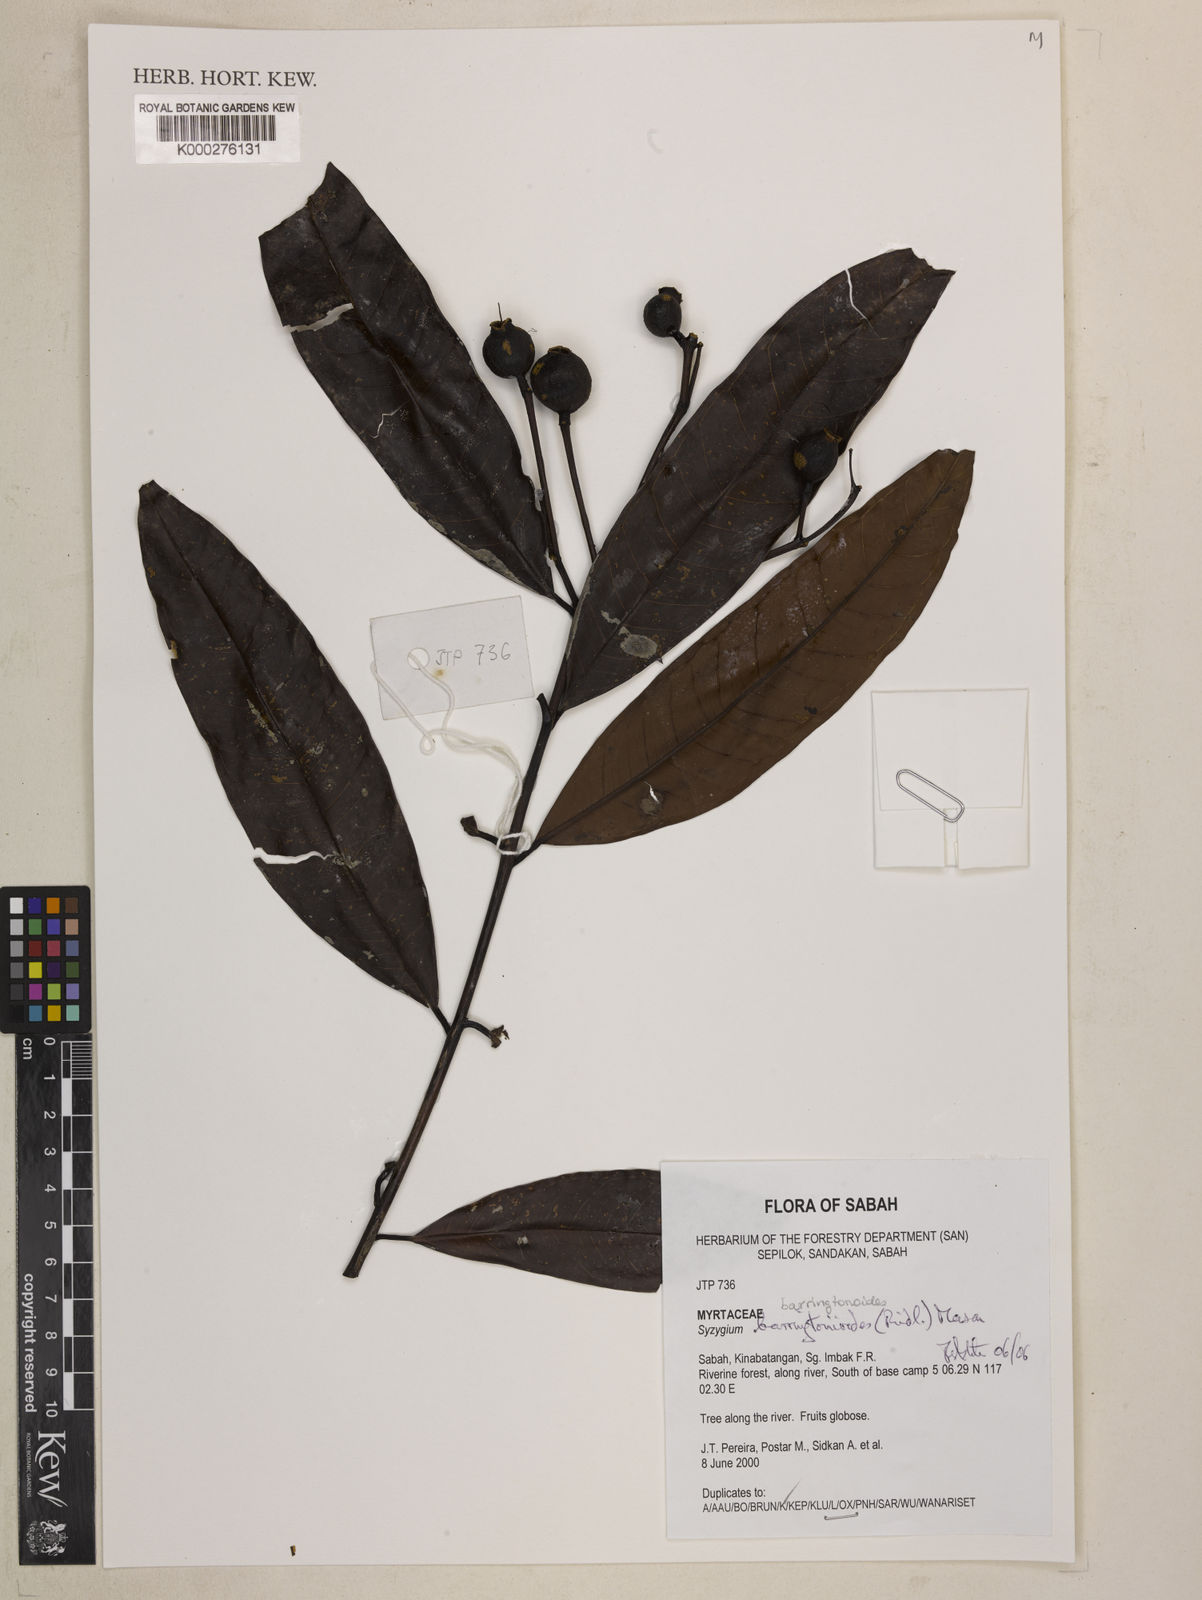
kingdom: Plantae
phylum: Tracheophyta
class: Magnoliopsida
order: Myrtales
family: Myrtaceae
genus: Syzygium
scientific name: Syzygium barringtonioides
